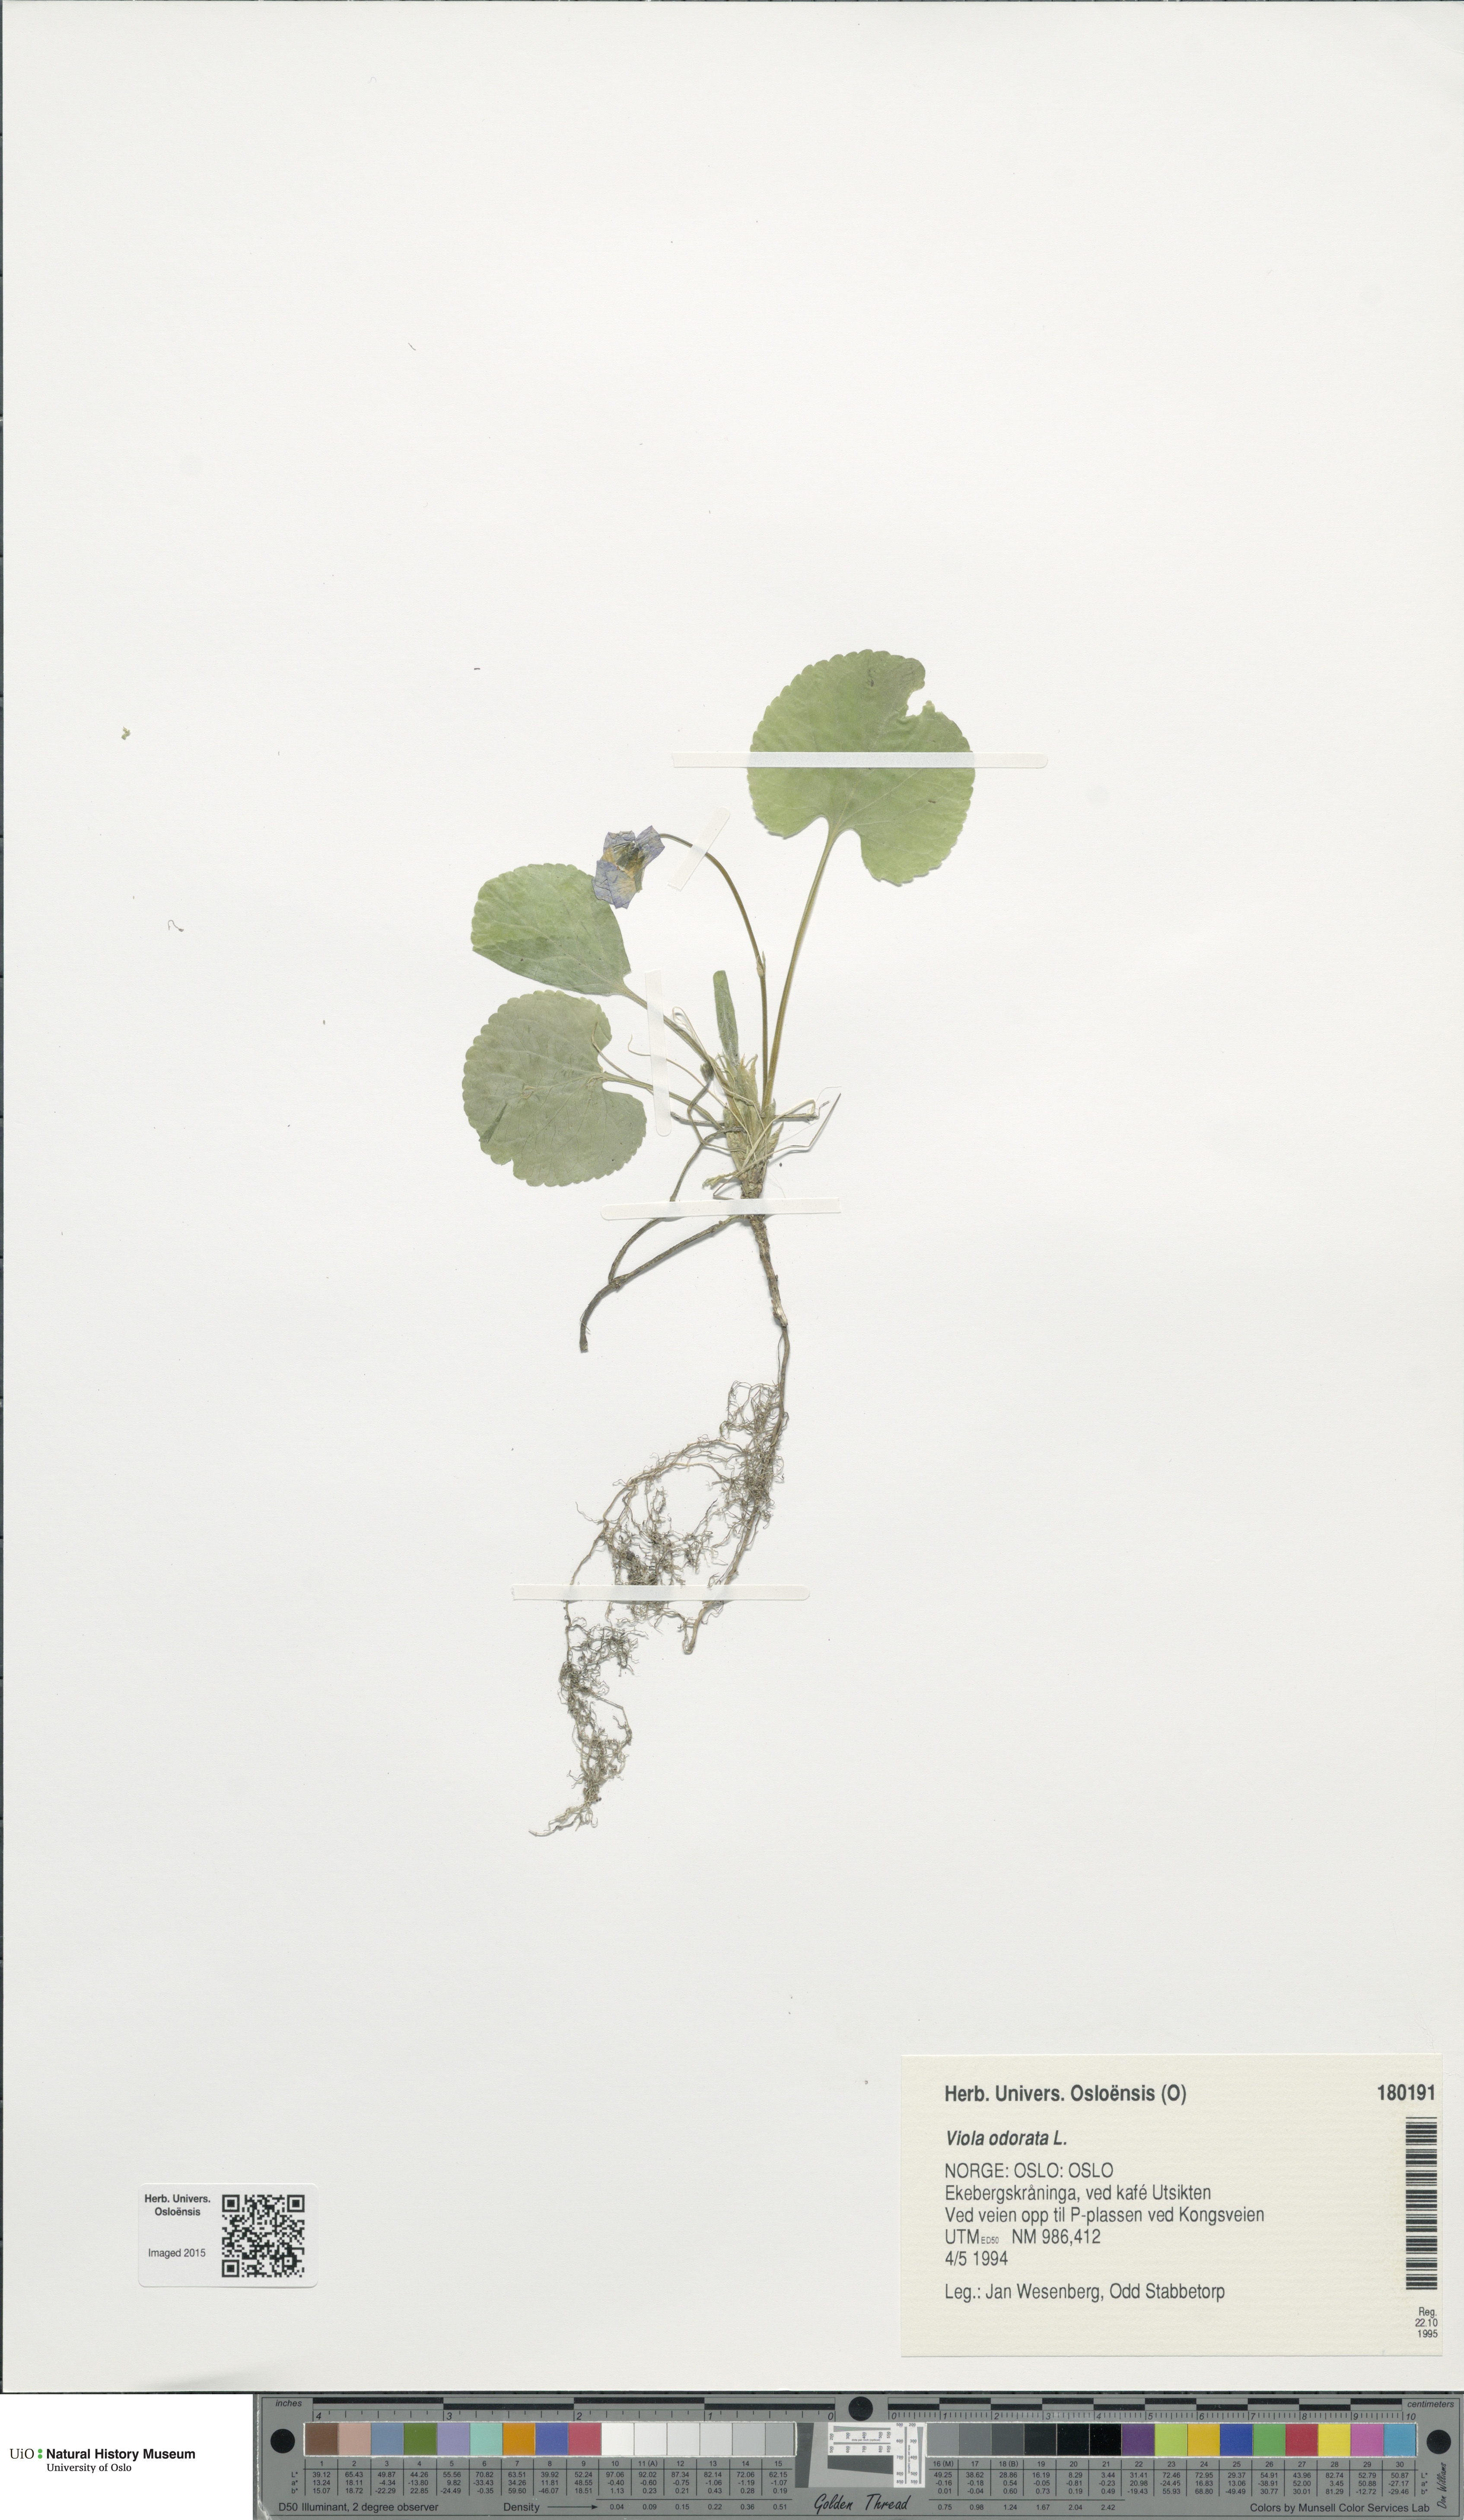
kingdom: Plantae
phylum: Tracheophyta
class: Magnoliopsida
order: Malpighiales
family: Violaceae
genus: Viola
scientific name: Viola odorata
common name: Sweet violet
